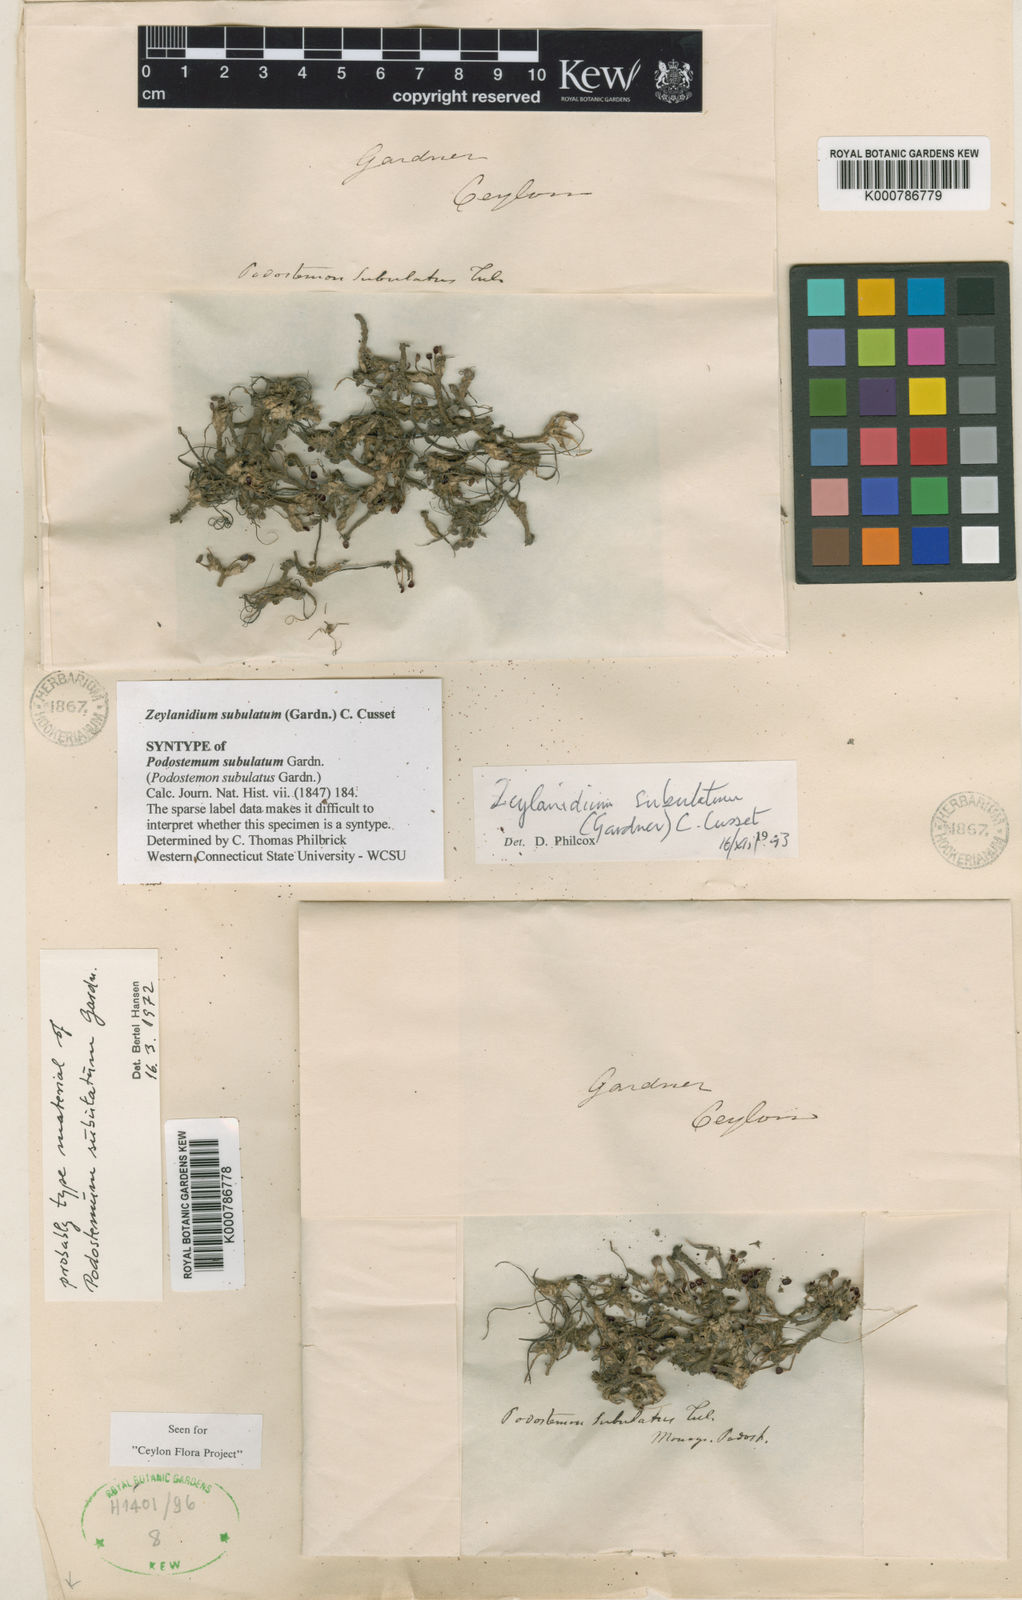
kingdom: Plantae
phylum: Tracheophyta
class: Magnoliopsida
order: Malpighiales
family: Podostemaceae
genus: Podostemum
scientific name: Podostemum
